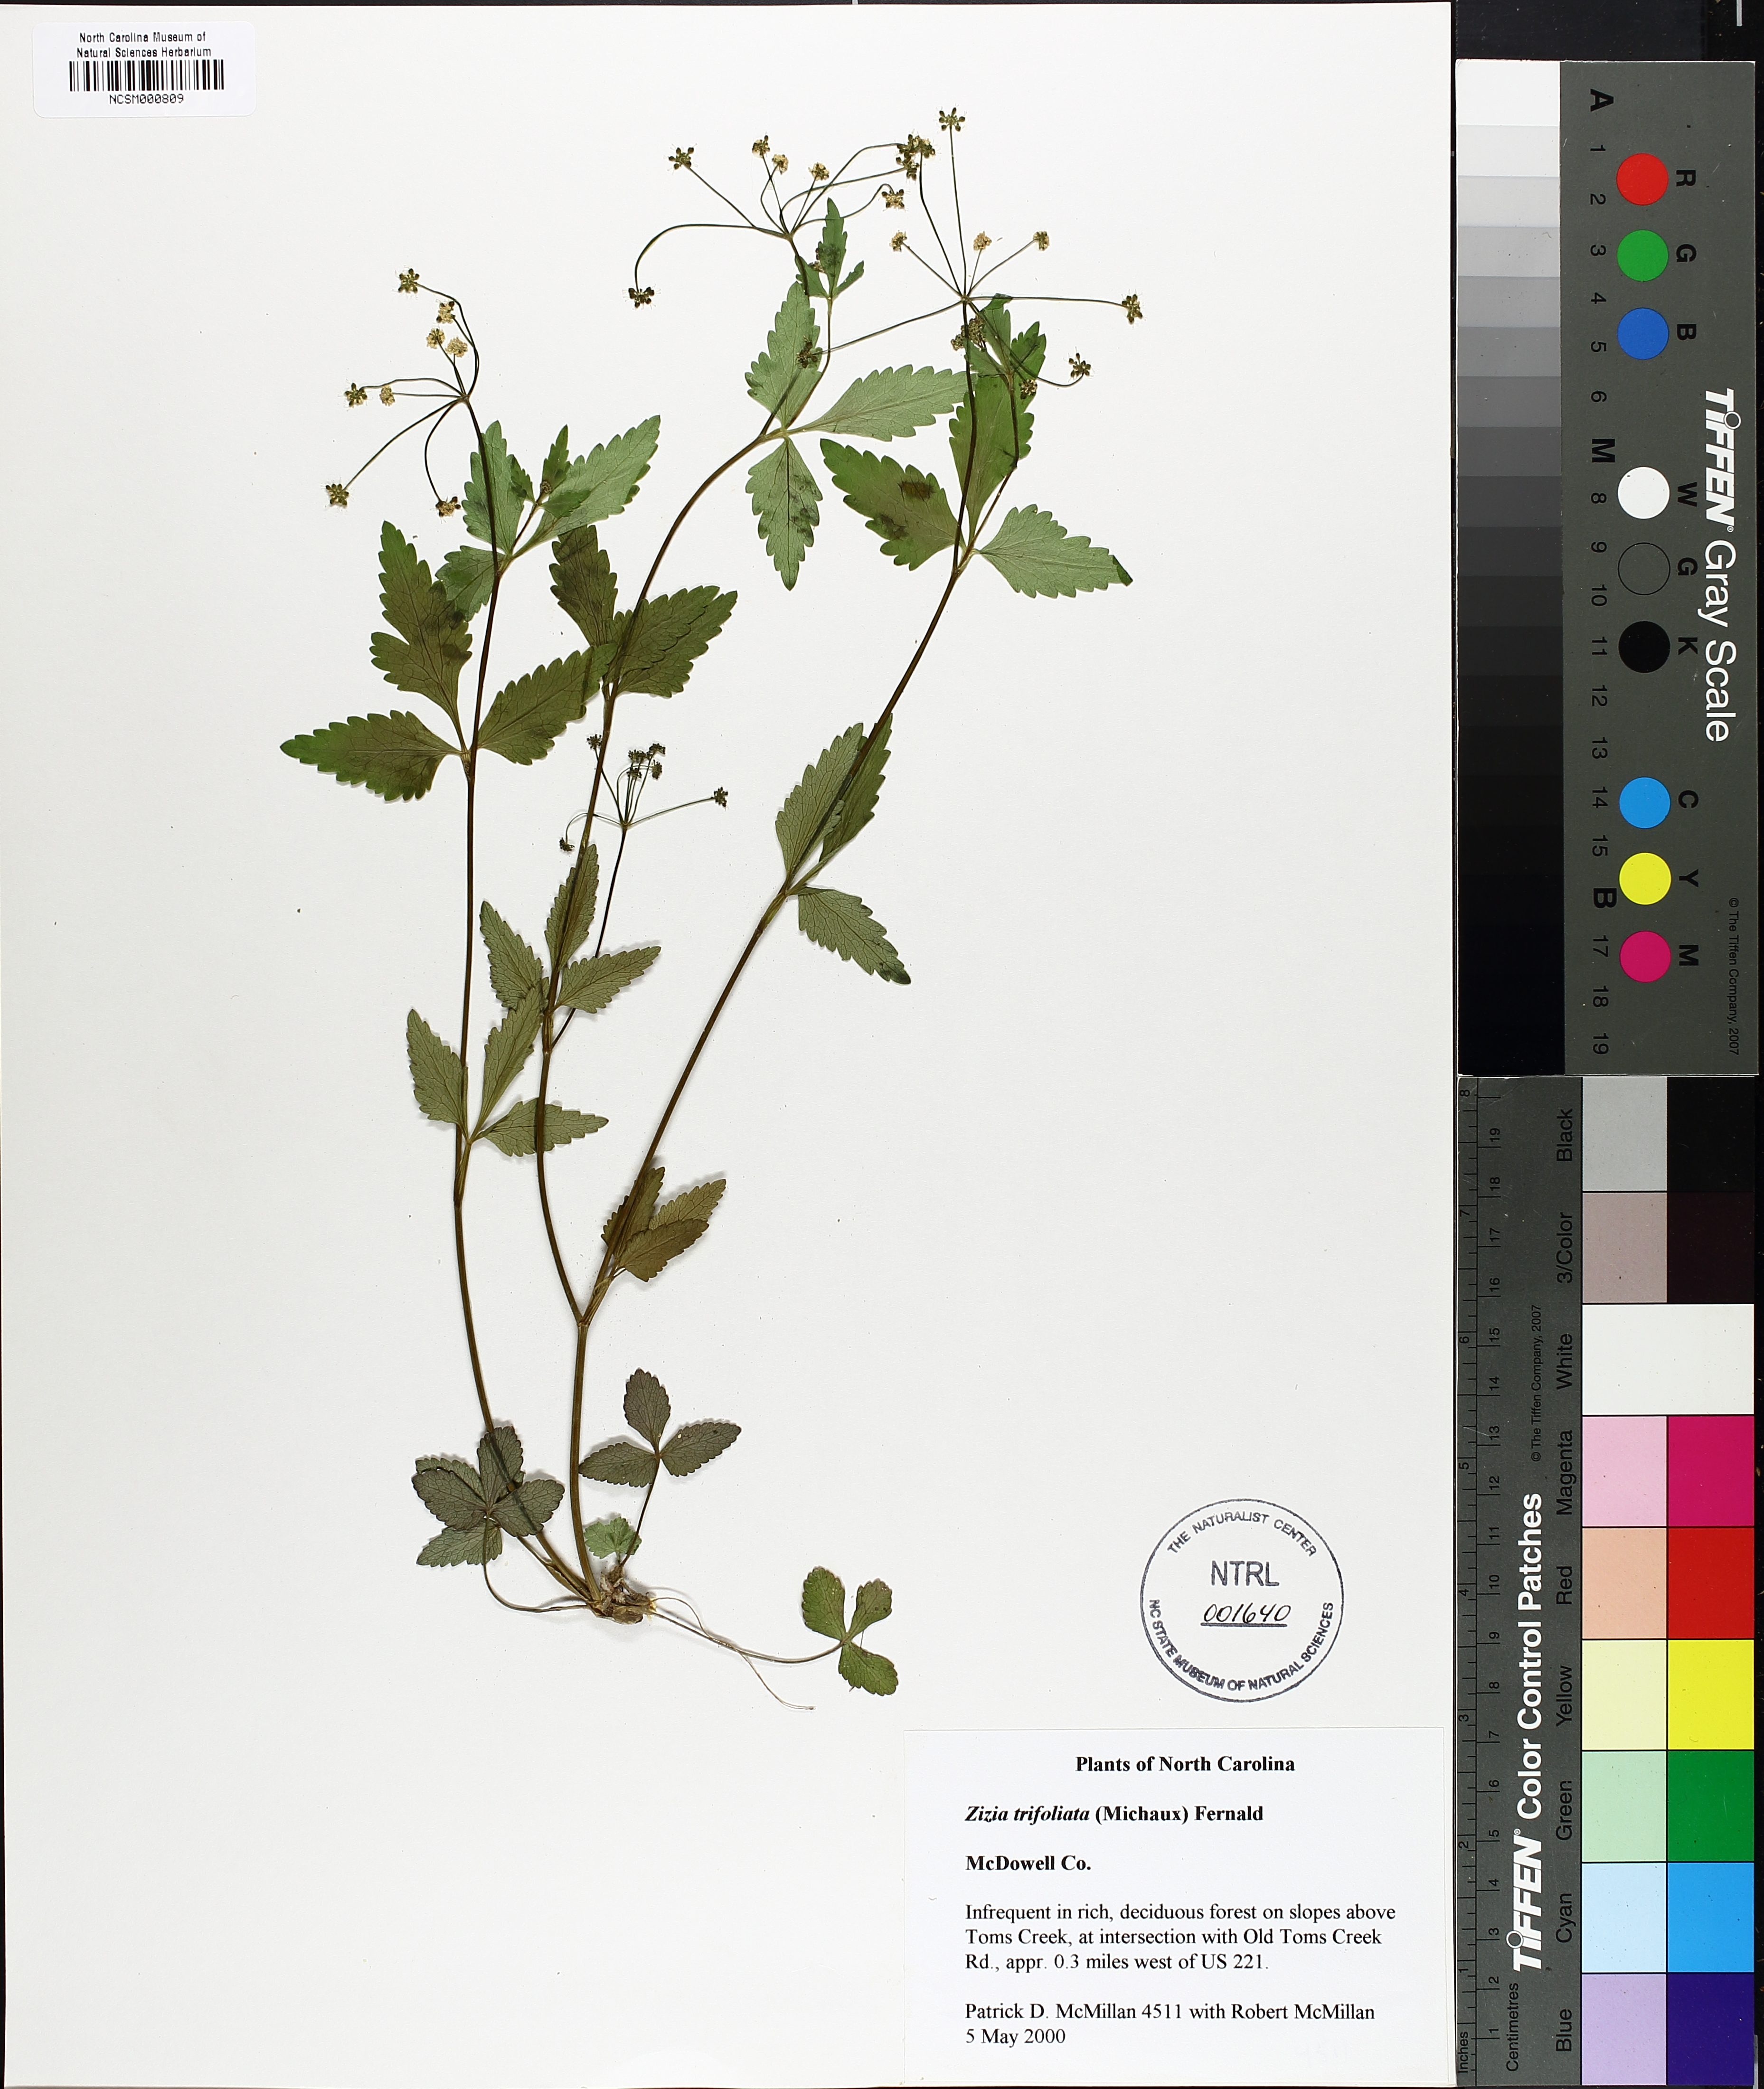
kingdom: Plantae
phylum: Tracheophyta
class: Magnoliopsida
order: Apiales
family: Apiaceae
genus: Zizia
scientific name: Zizia trifoliata
